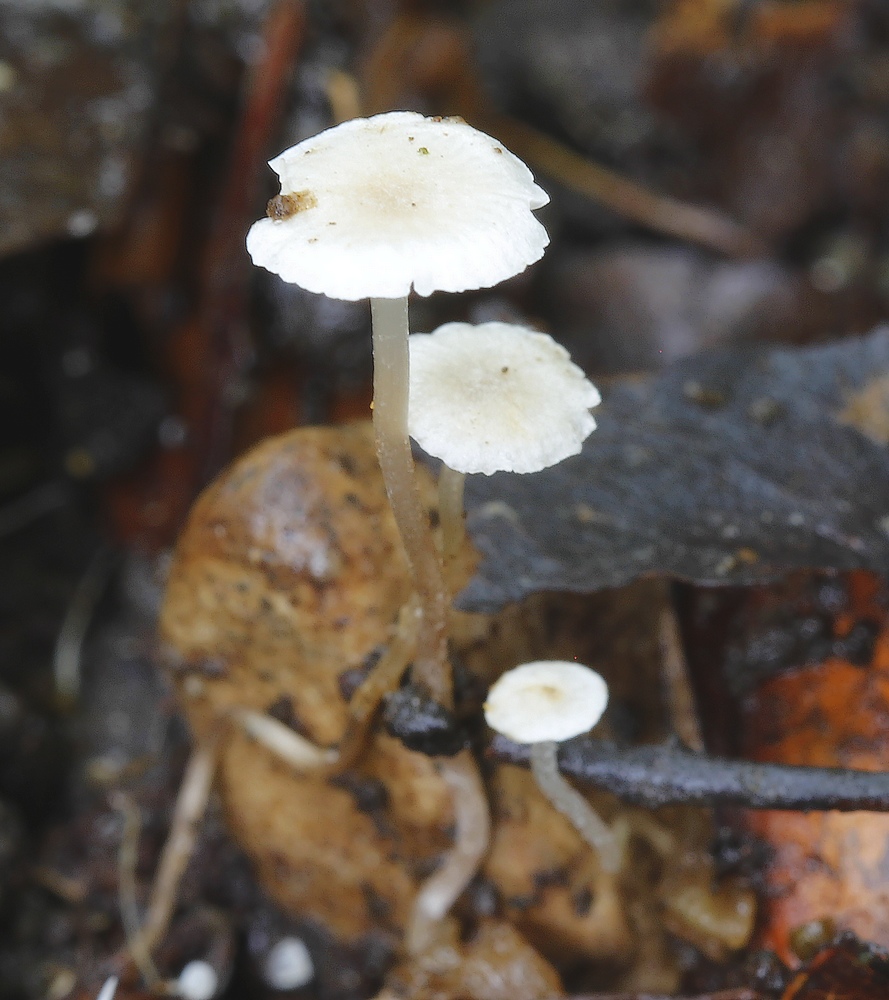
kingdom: Fungi
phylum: Basidiomycota
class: Agaricomycetes
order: Agaricales
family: Tricholomataceae
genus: Collybia
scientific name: Collybia
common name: lighat
